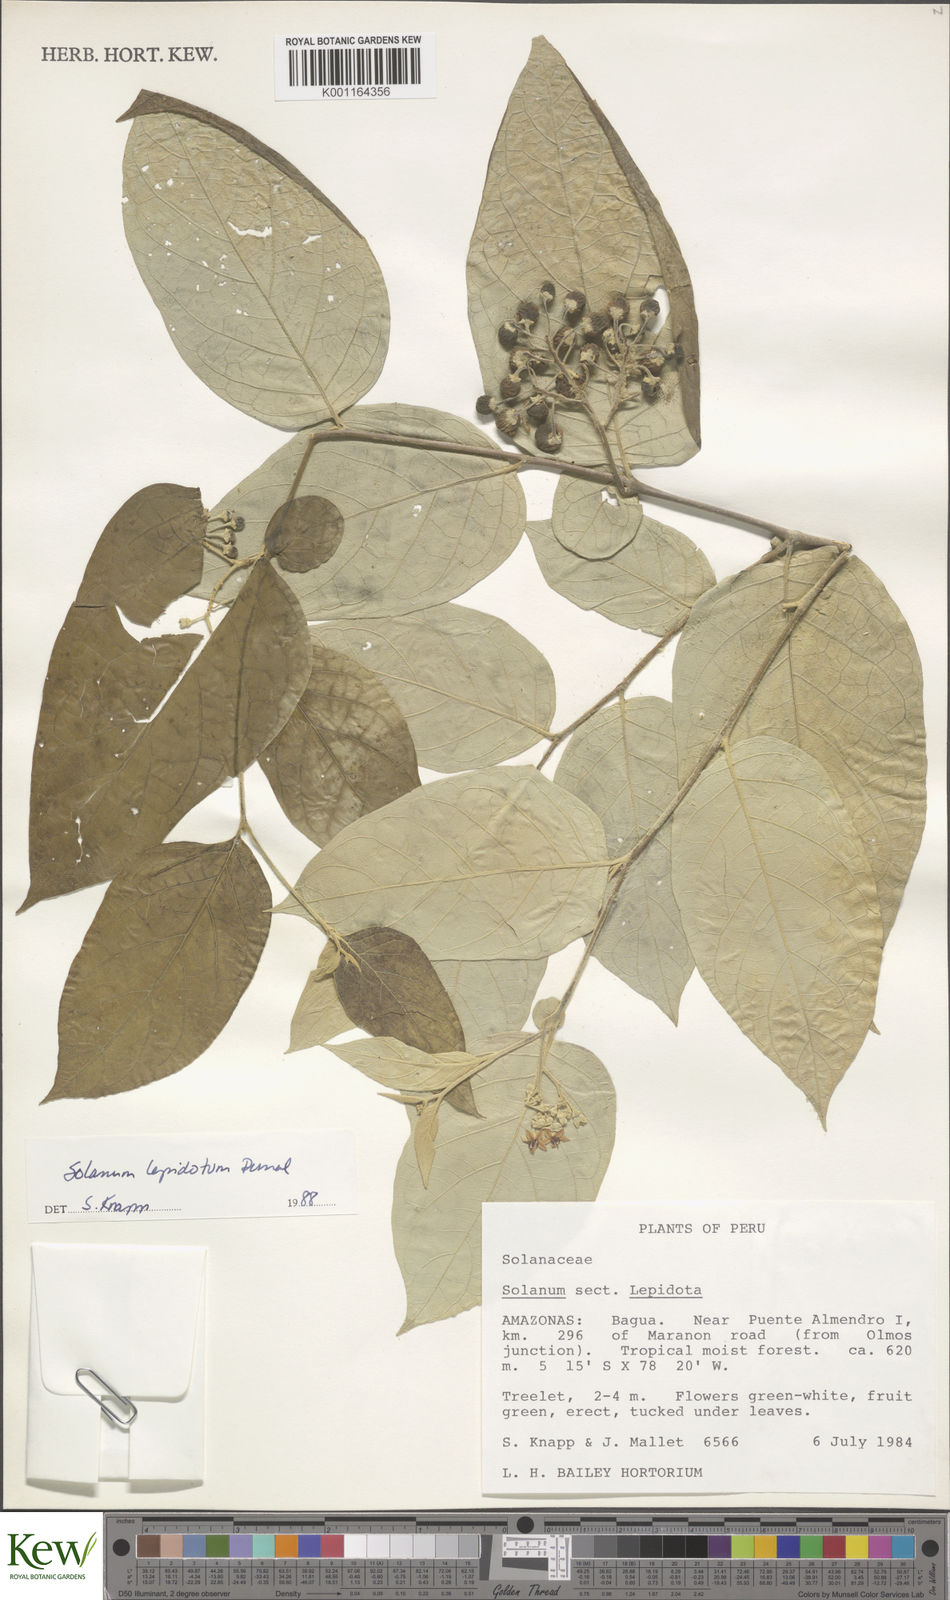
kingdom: Plantae
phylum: Tracheophyta
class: Magnoliopsida
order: Solanales
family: Solanaceae
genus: Solanum
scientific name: Solanum lepidotum
